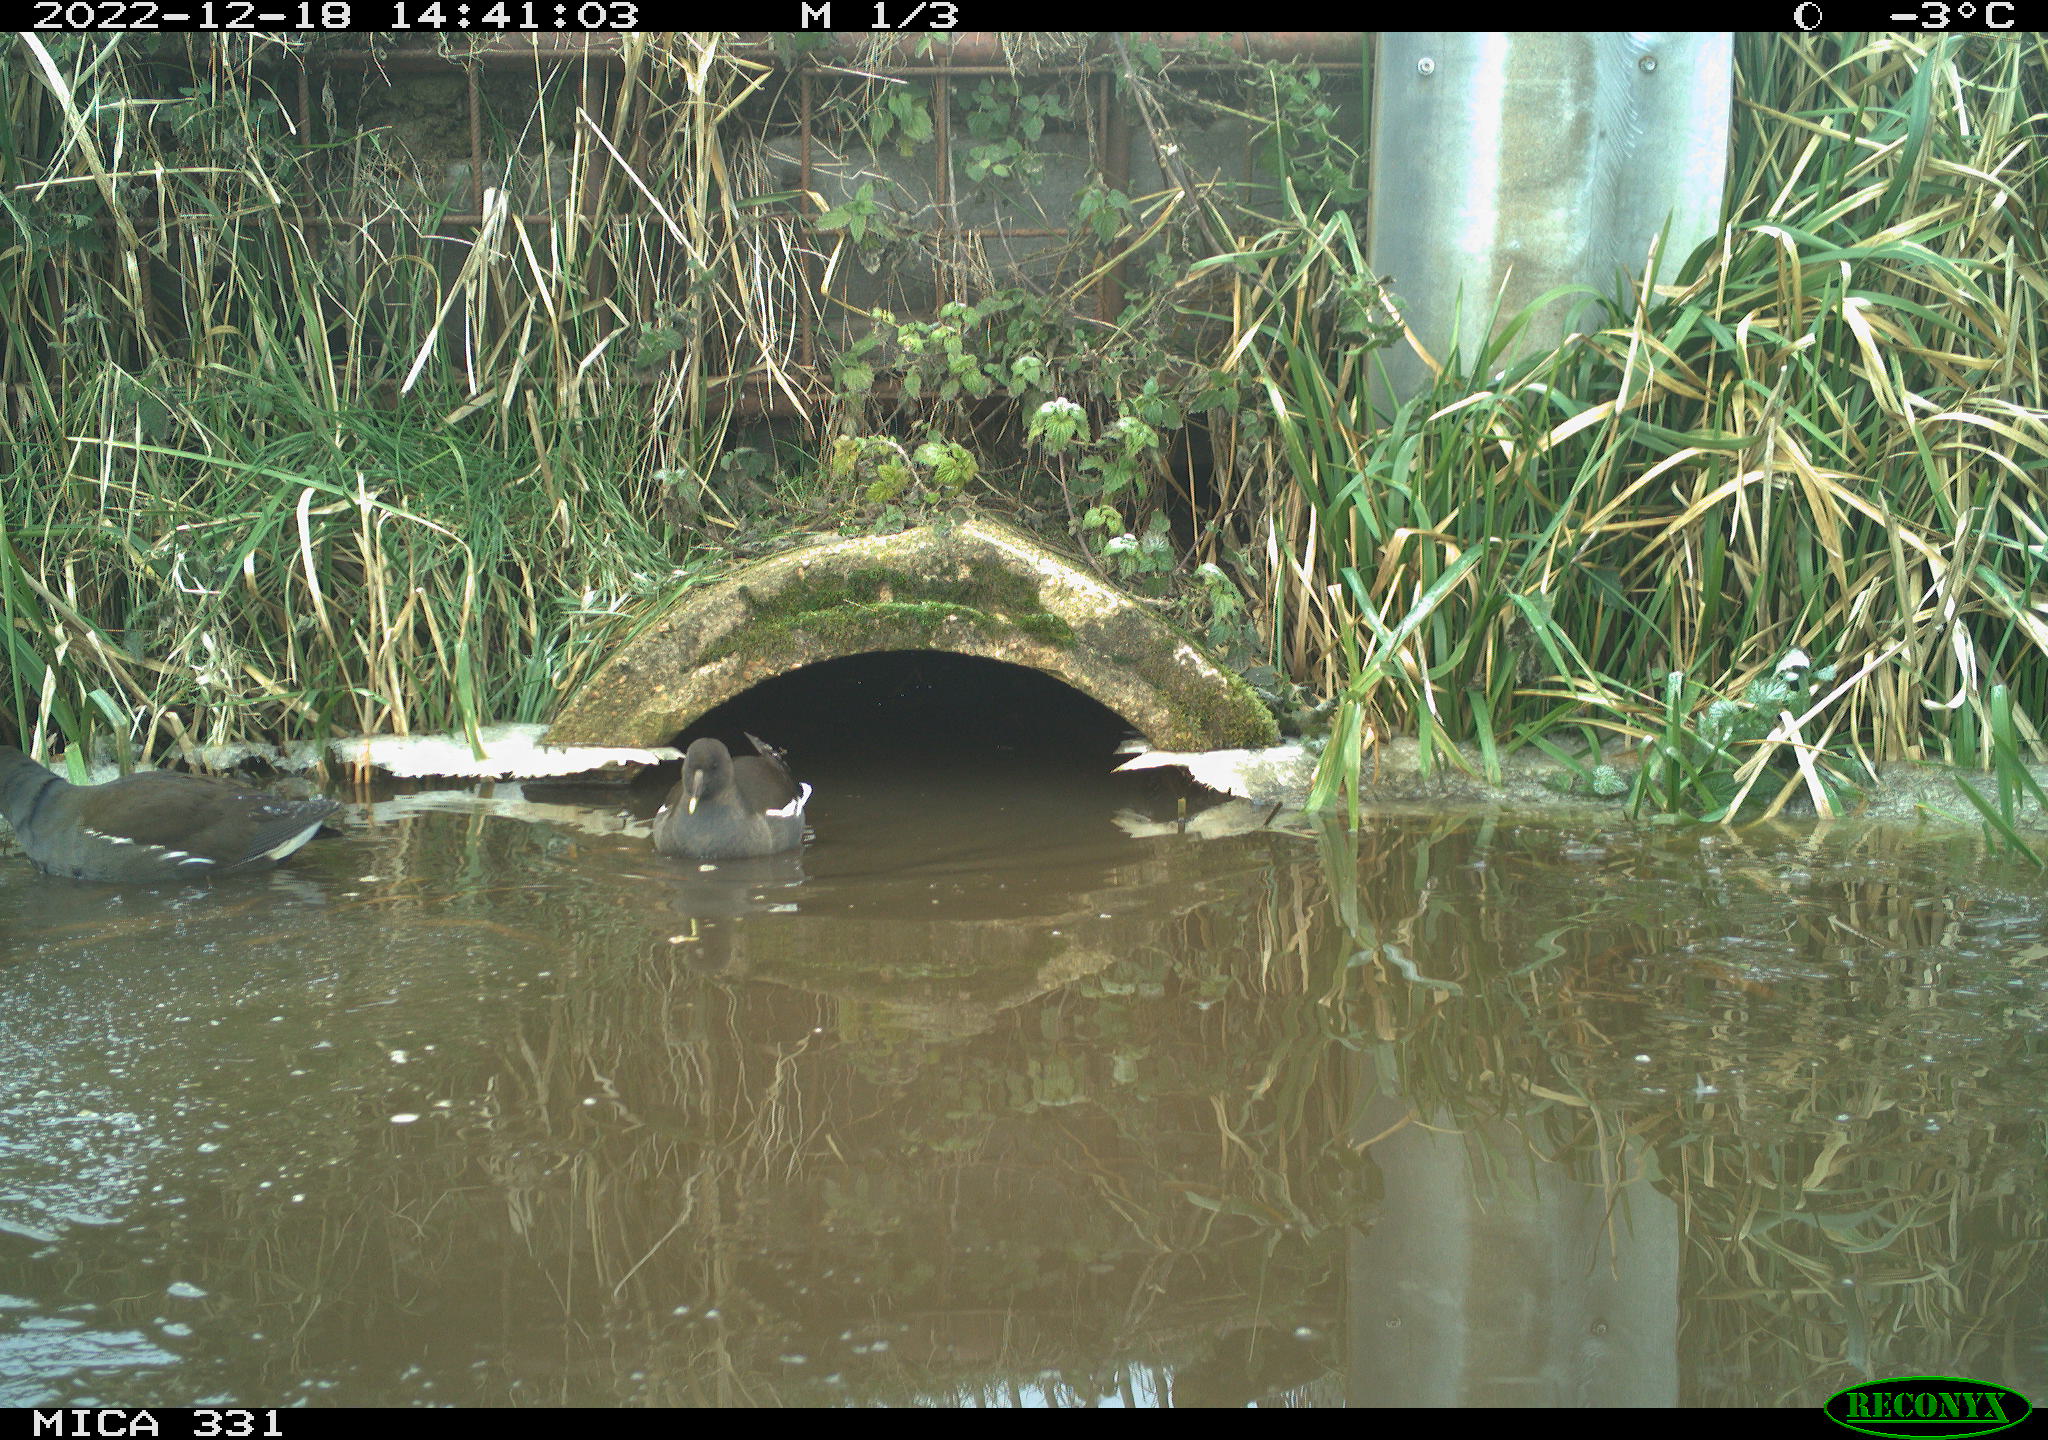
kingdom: Animalia
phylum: Chordata
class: Aves
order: Gruiformes
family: Rallidae
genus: Gallinula
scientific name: Gallinula chloropus
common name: Common moorhen
